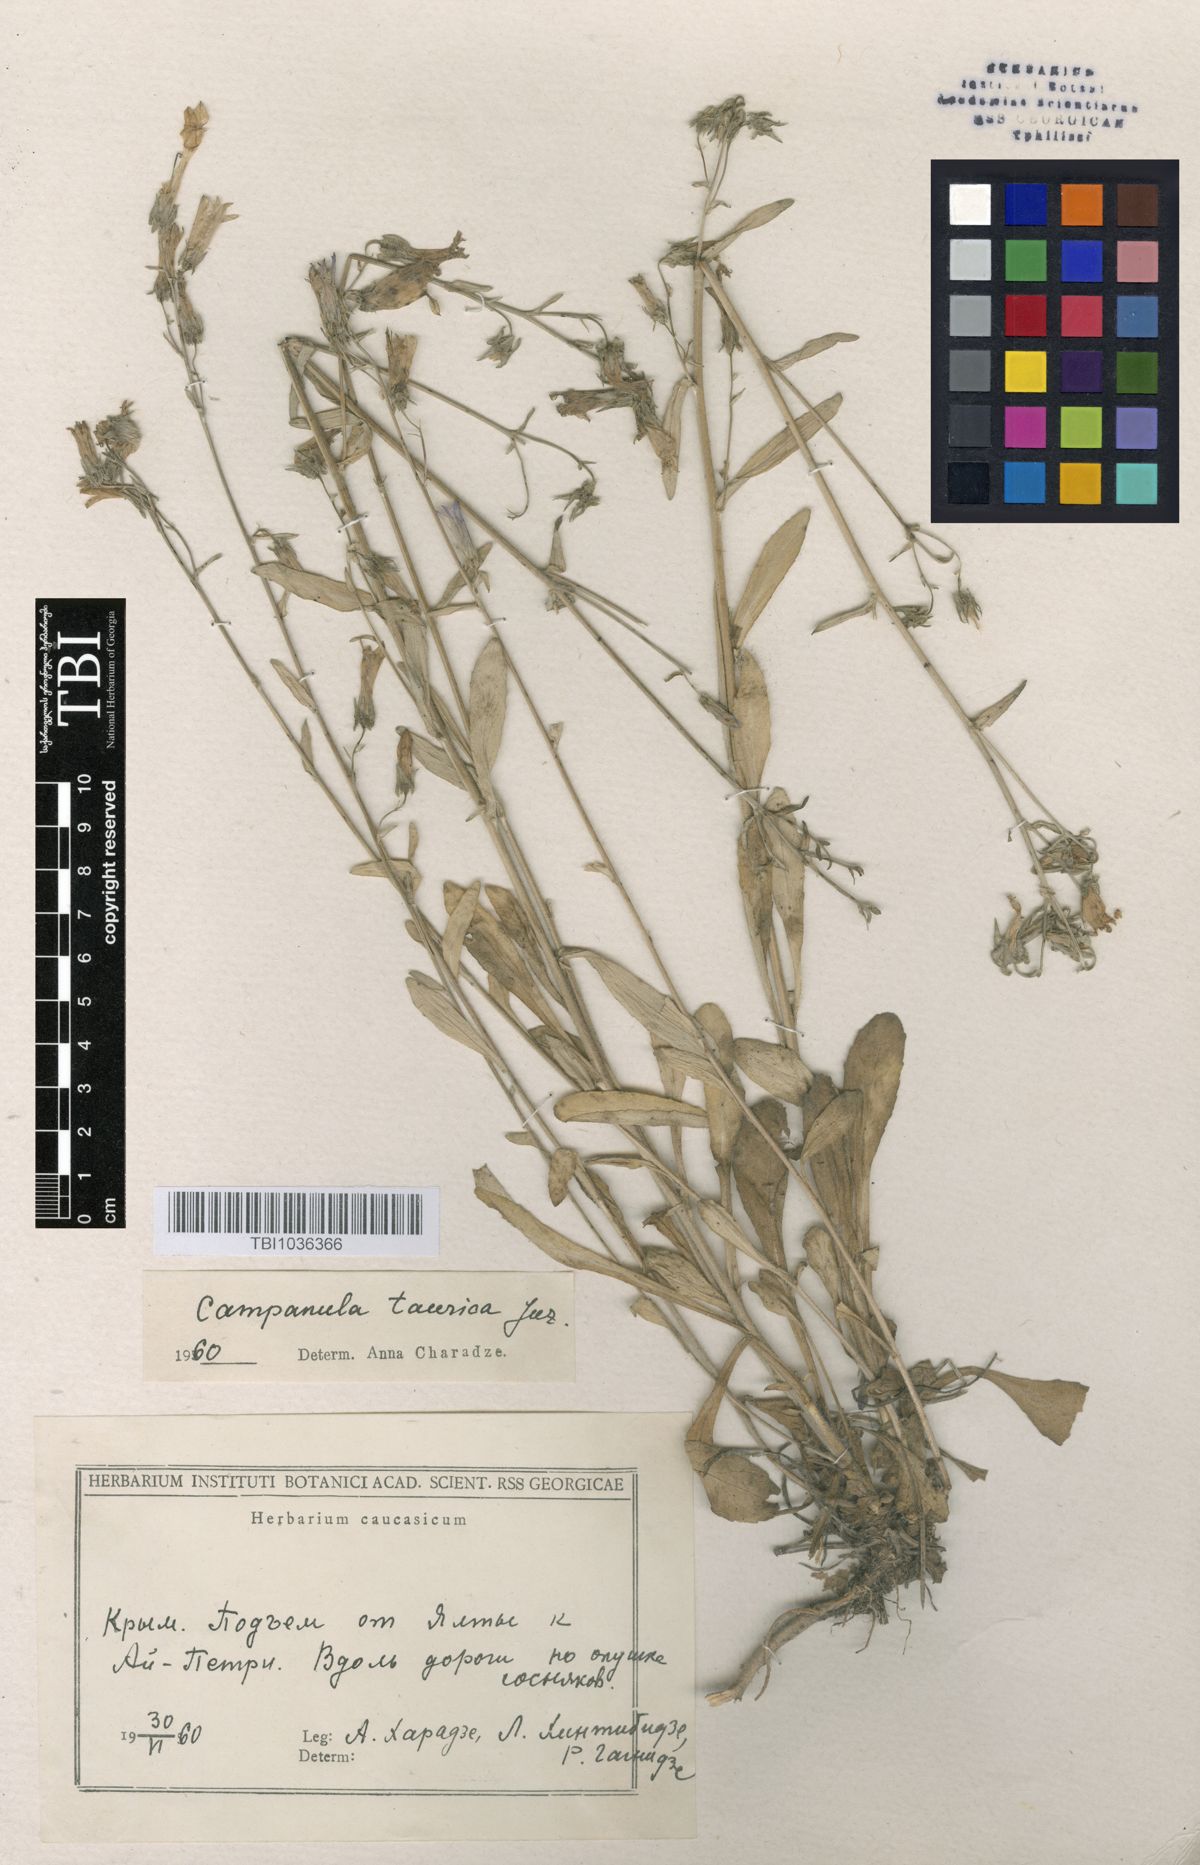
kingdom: Plantae
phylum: Tracheophyta
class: Magnoliopsida
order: Asterales
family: Campanulaceae
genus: Campanula
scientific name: Campanula sibirica
